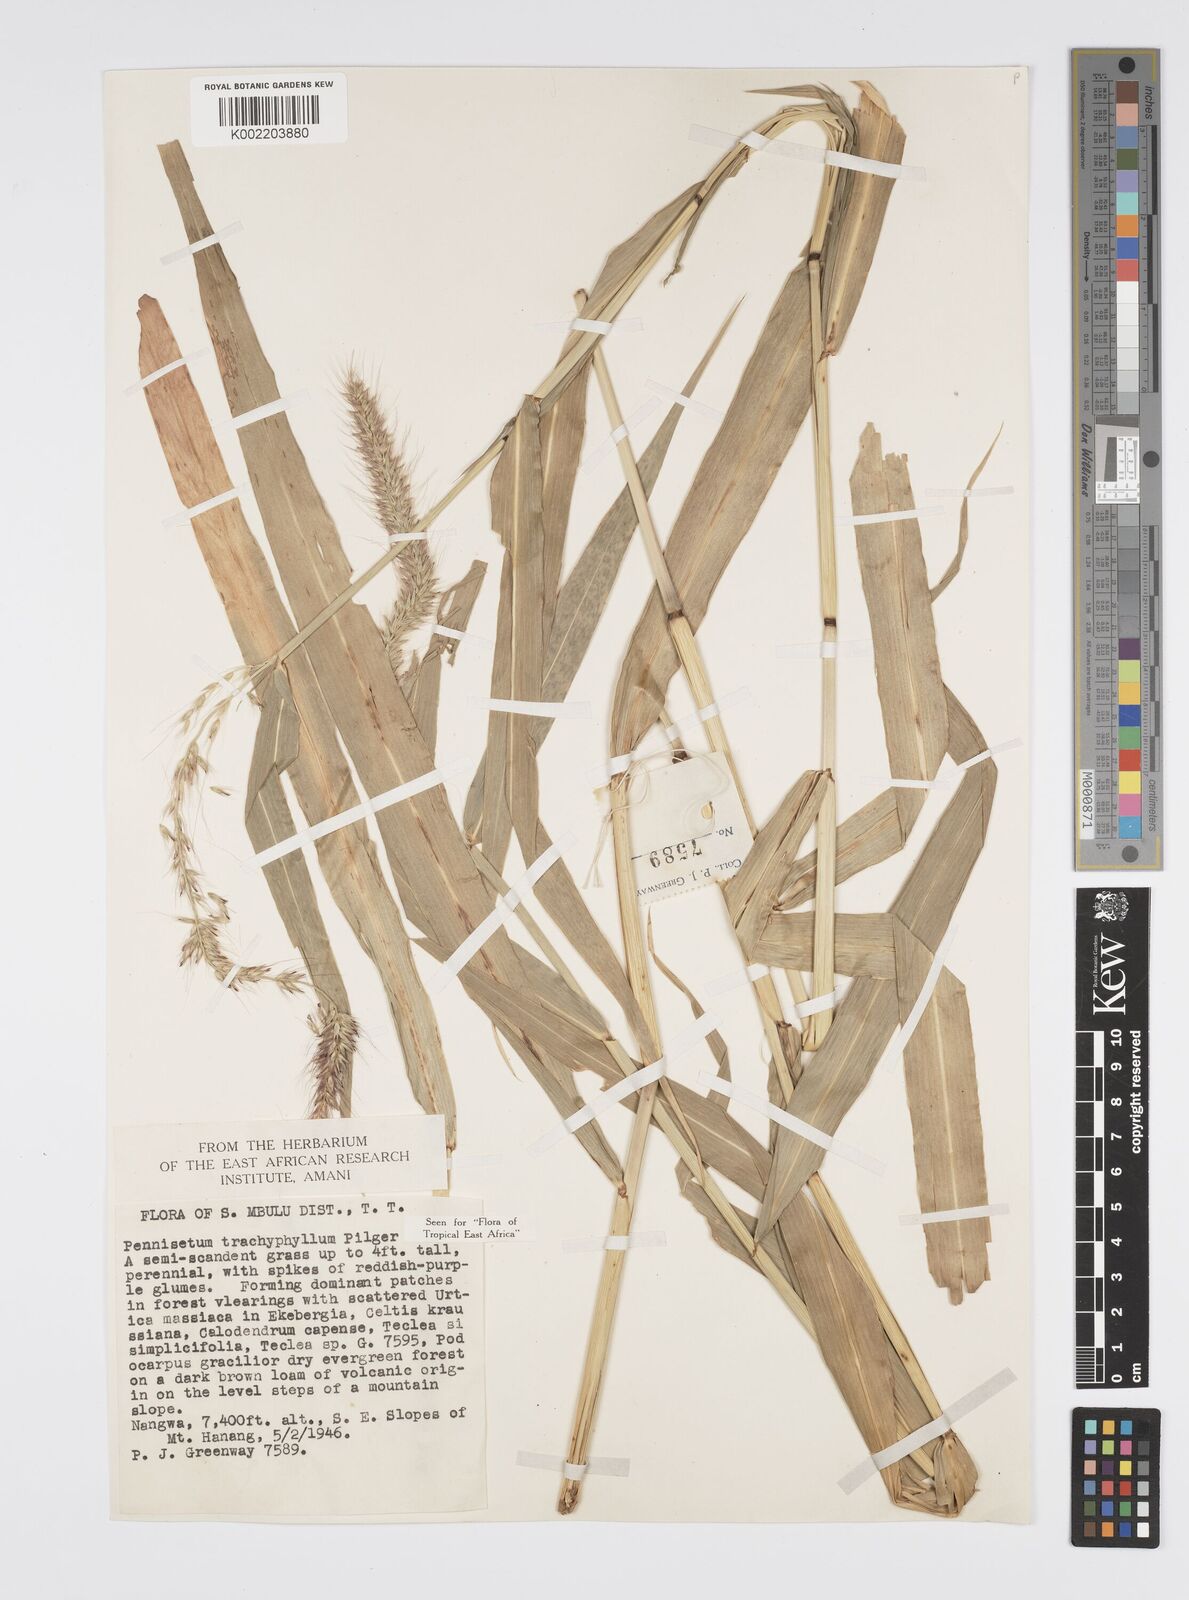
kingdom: Plantae
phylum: Tracheophyta
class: Liliopsida
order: Poales
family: Poaceae
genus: Cenchrus
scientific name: Cenchrus trachyphyllus
